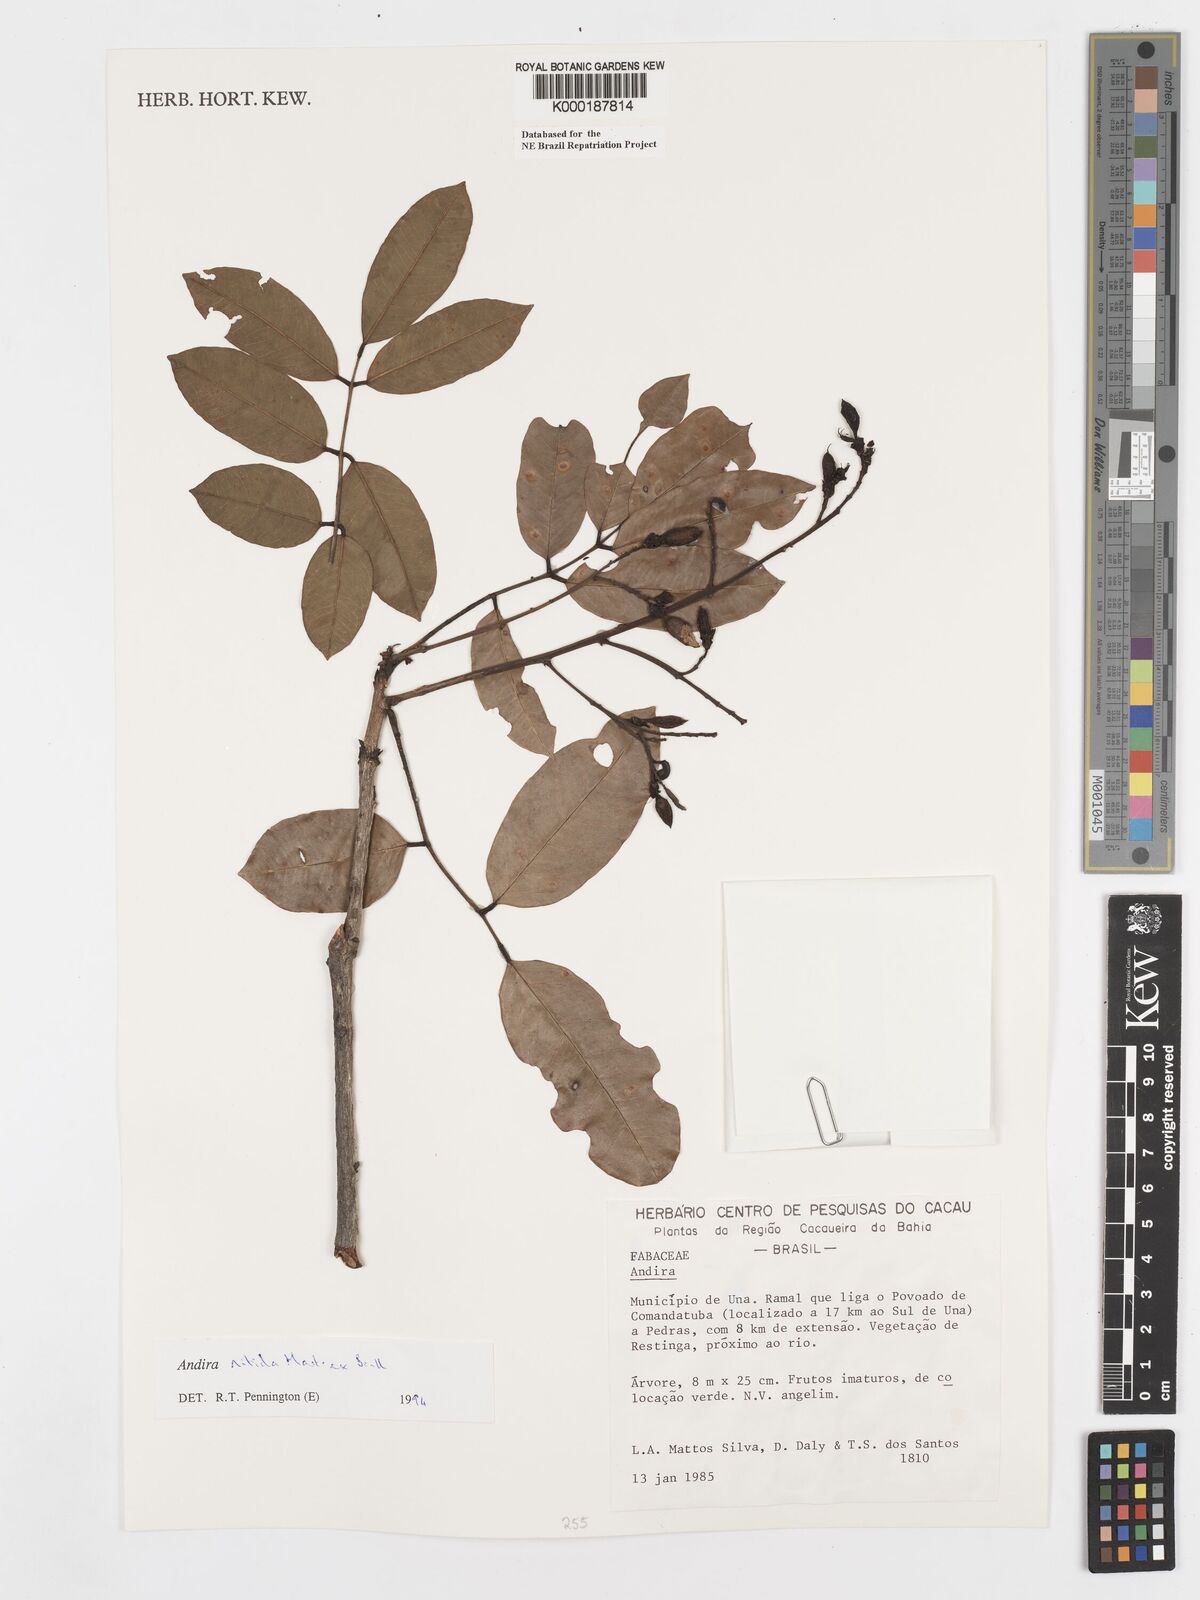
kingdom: Plantae
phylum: Tracheophyta
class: Magnoliopsida
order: Fabales
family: Fabaceae
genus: Andira
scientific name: Andira nitida
